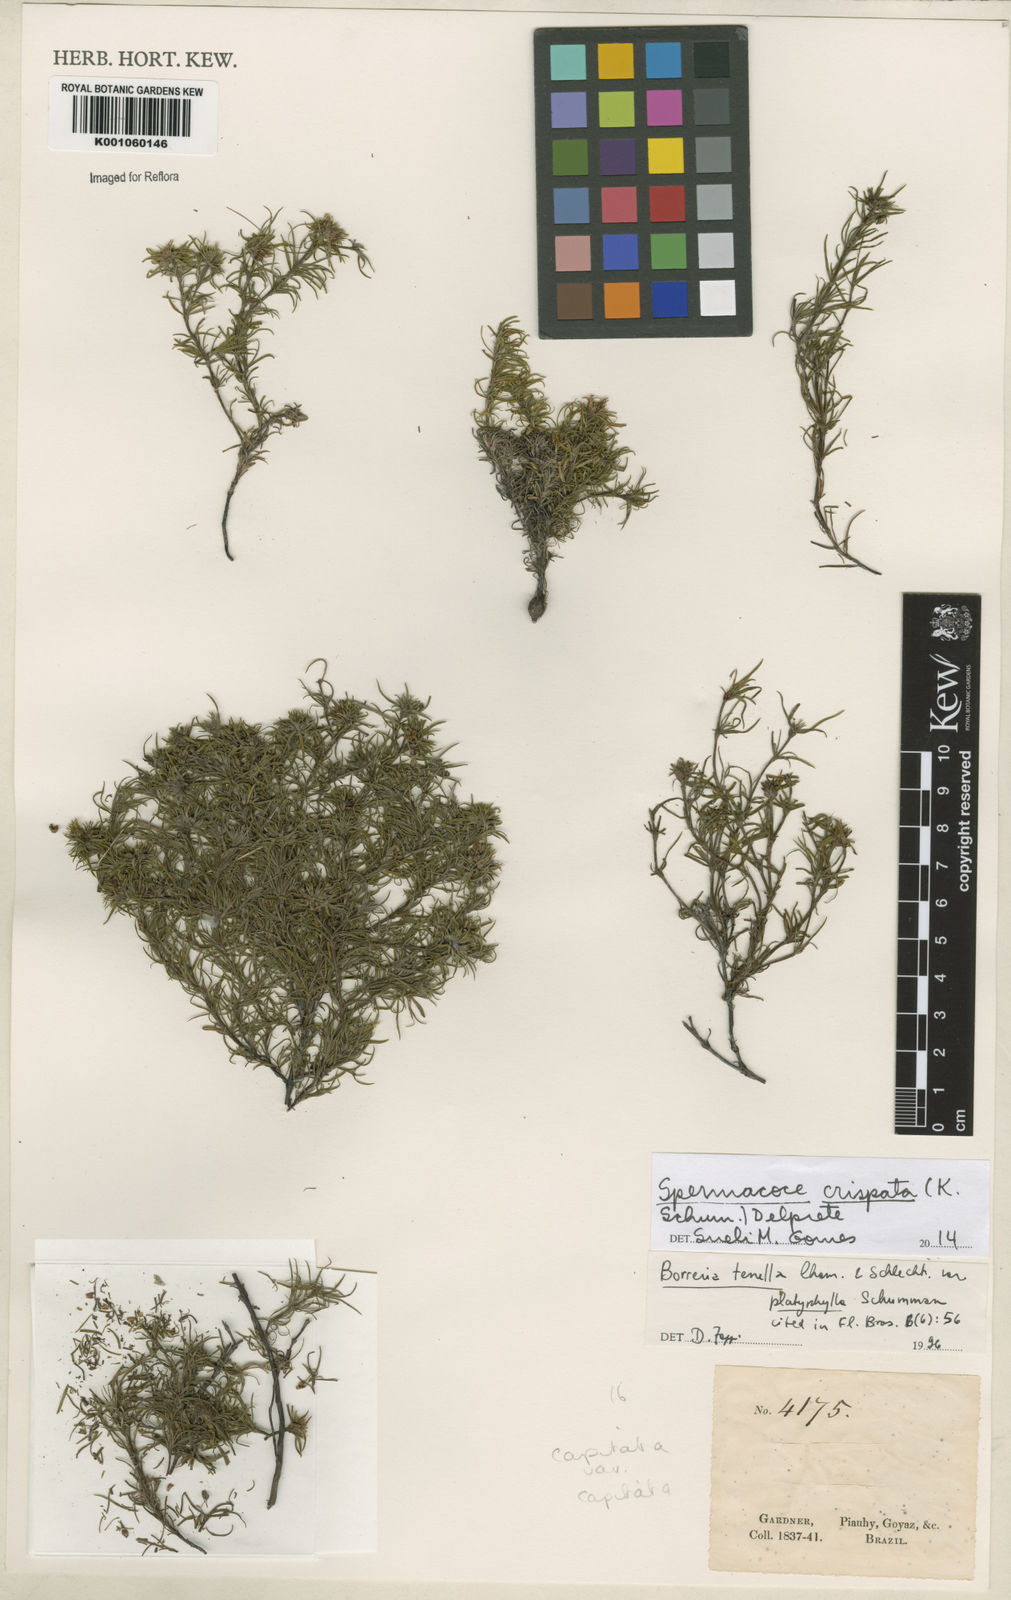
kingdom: Plantae
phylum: Tracheophyta
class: Magnoliopsida
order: Gentianales
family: Rubiaceae
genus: Spermacoce
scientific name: Spermacoce crispata
